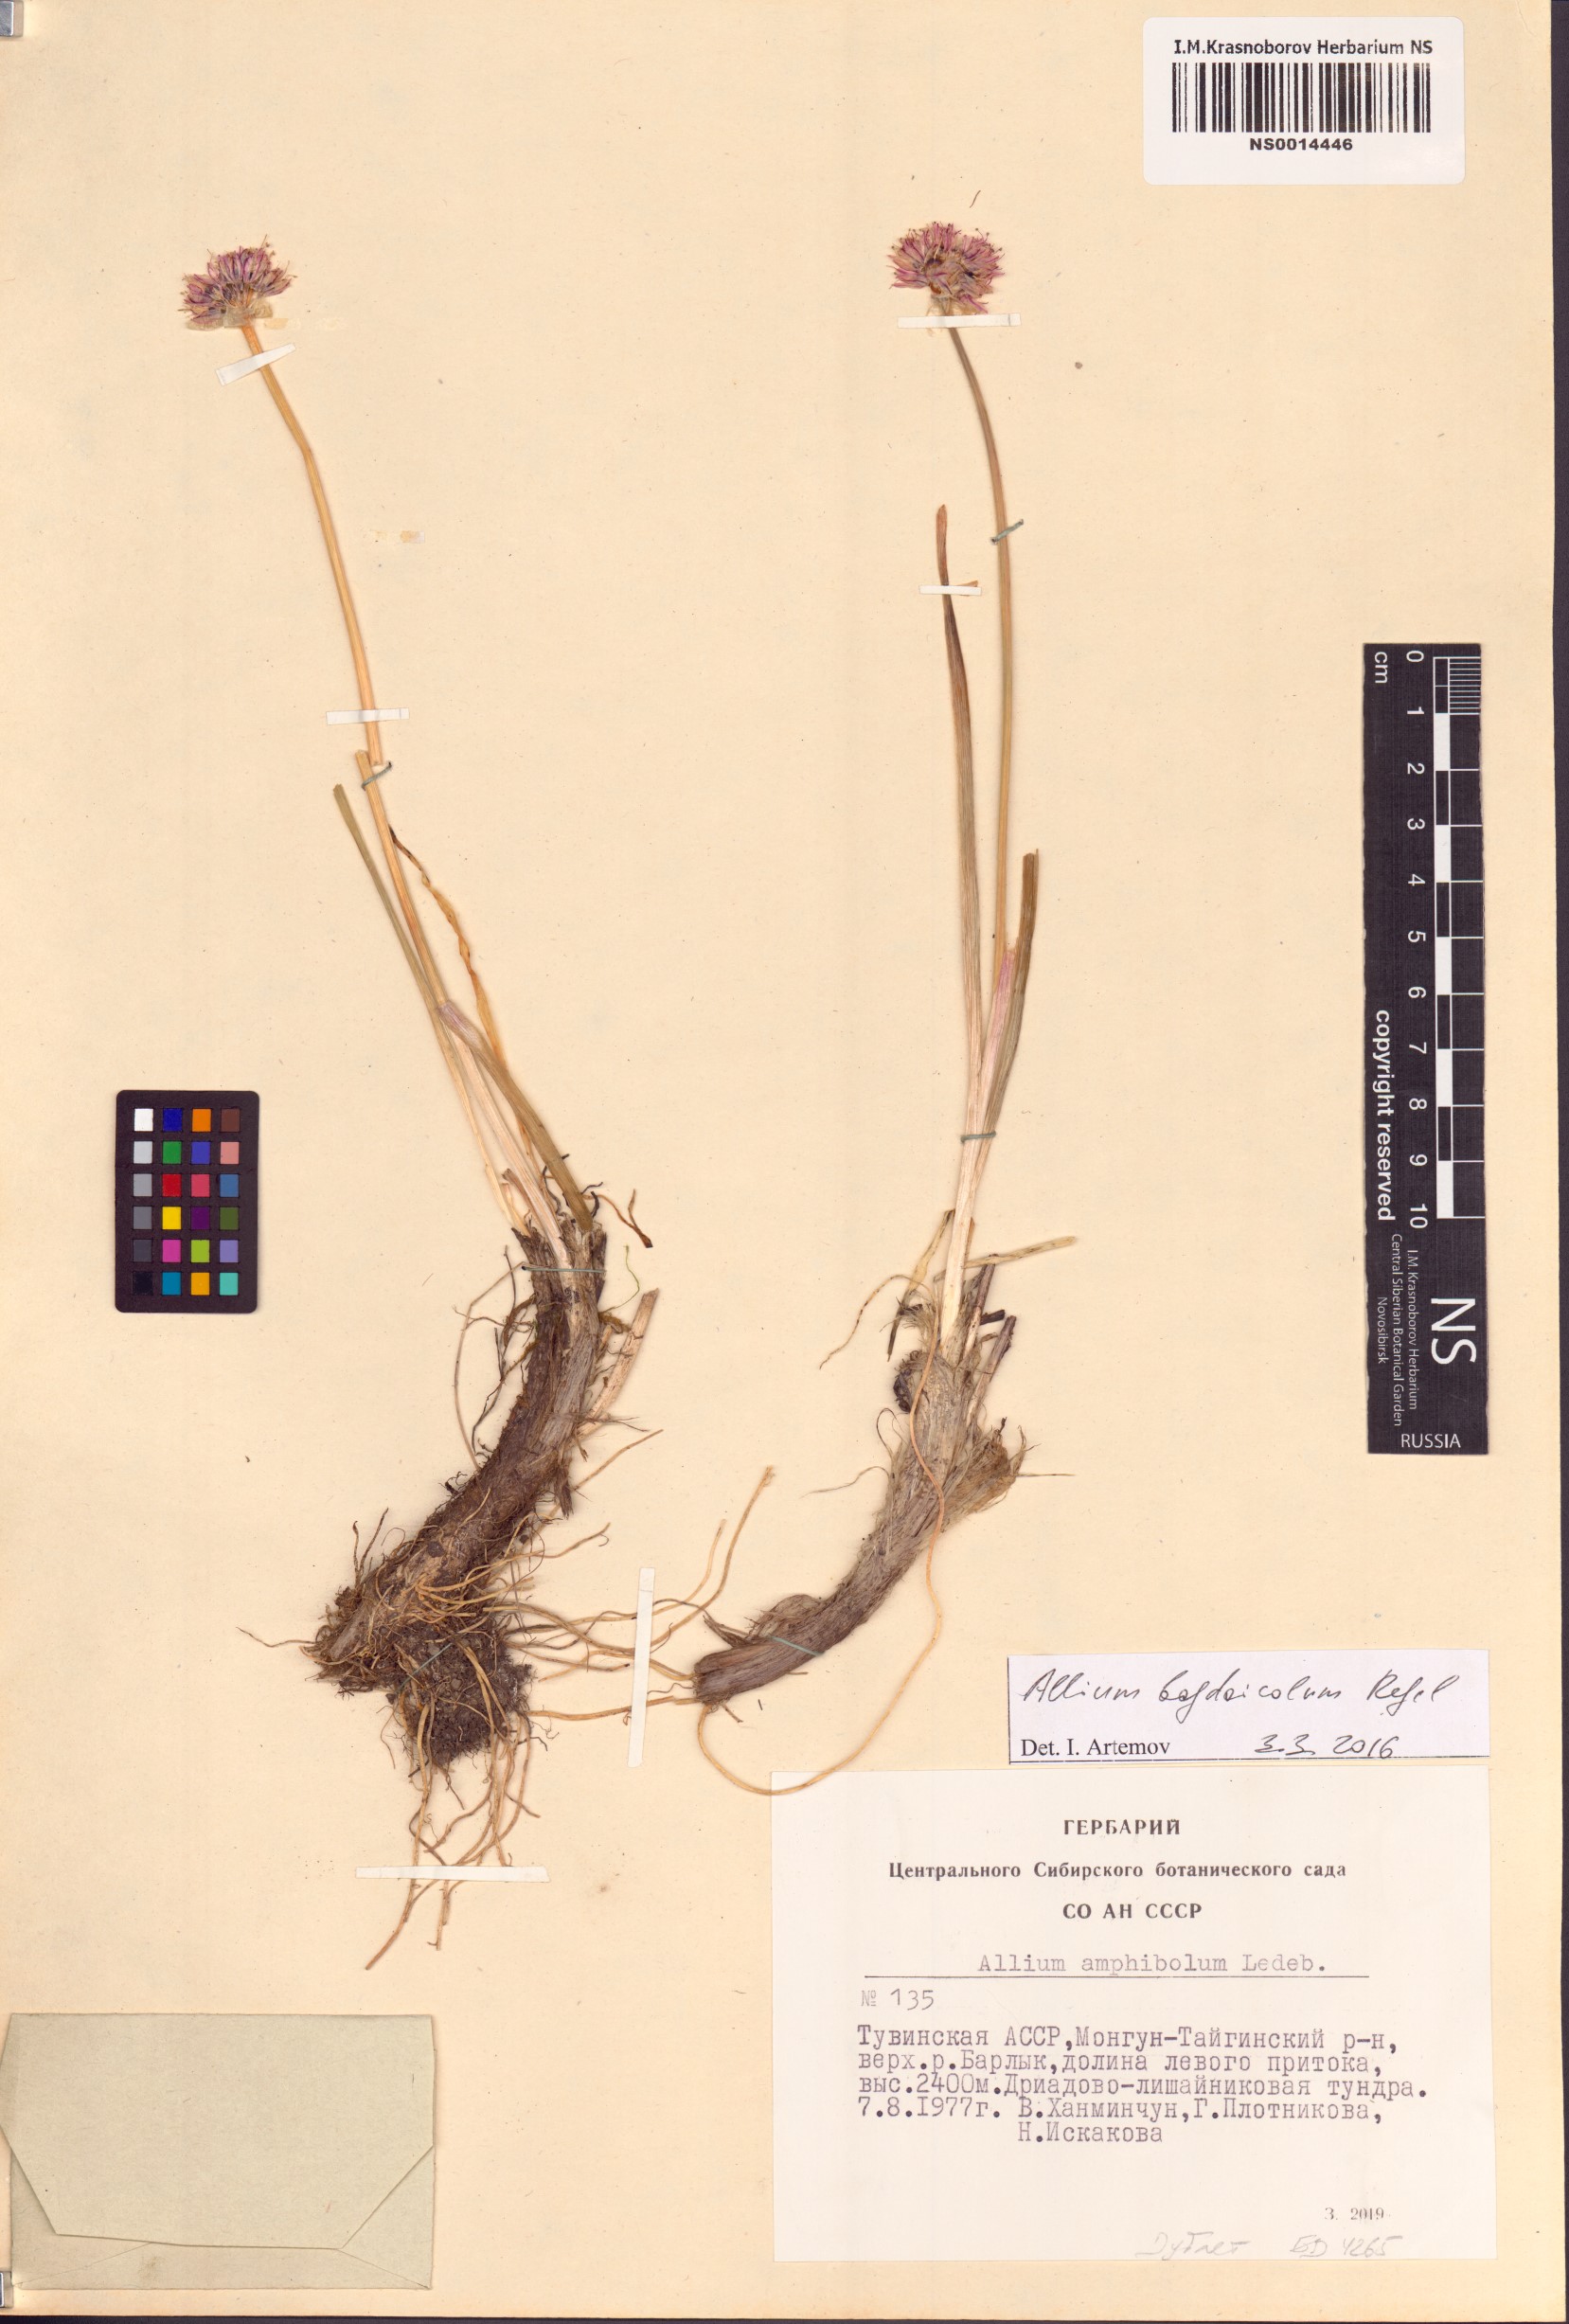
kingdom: Plantae
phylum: Tracheophyta
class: Liliopsida
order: Asparagales
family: Amaryllidaceae
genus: Allium
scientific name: Allium schrenkii
